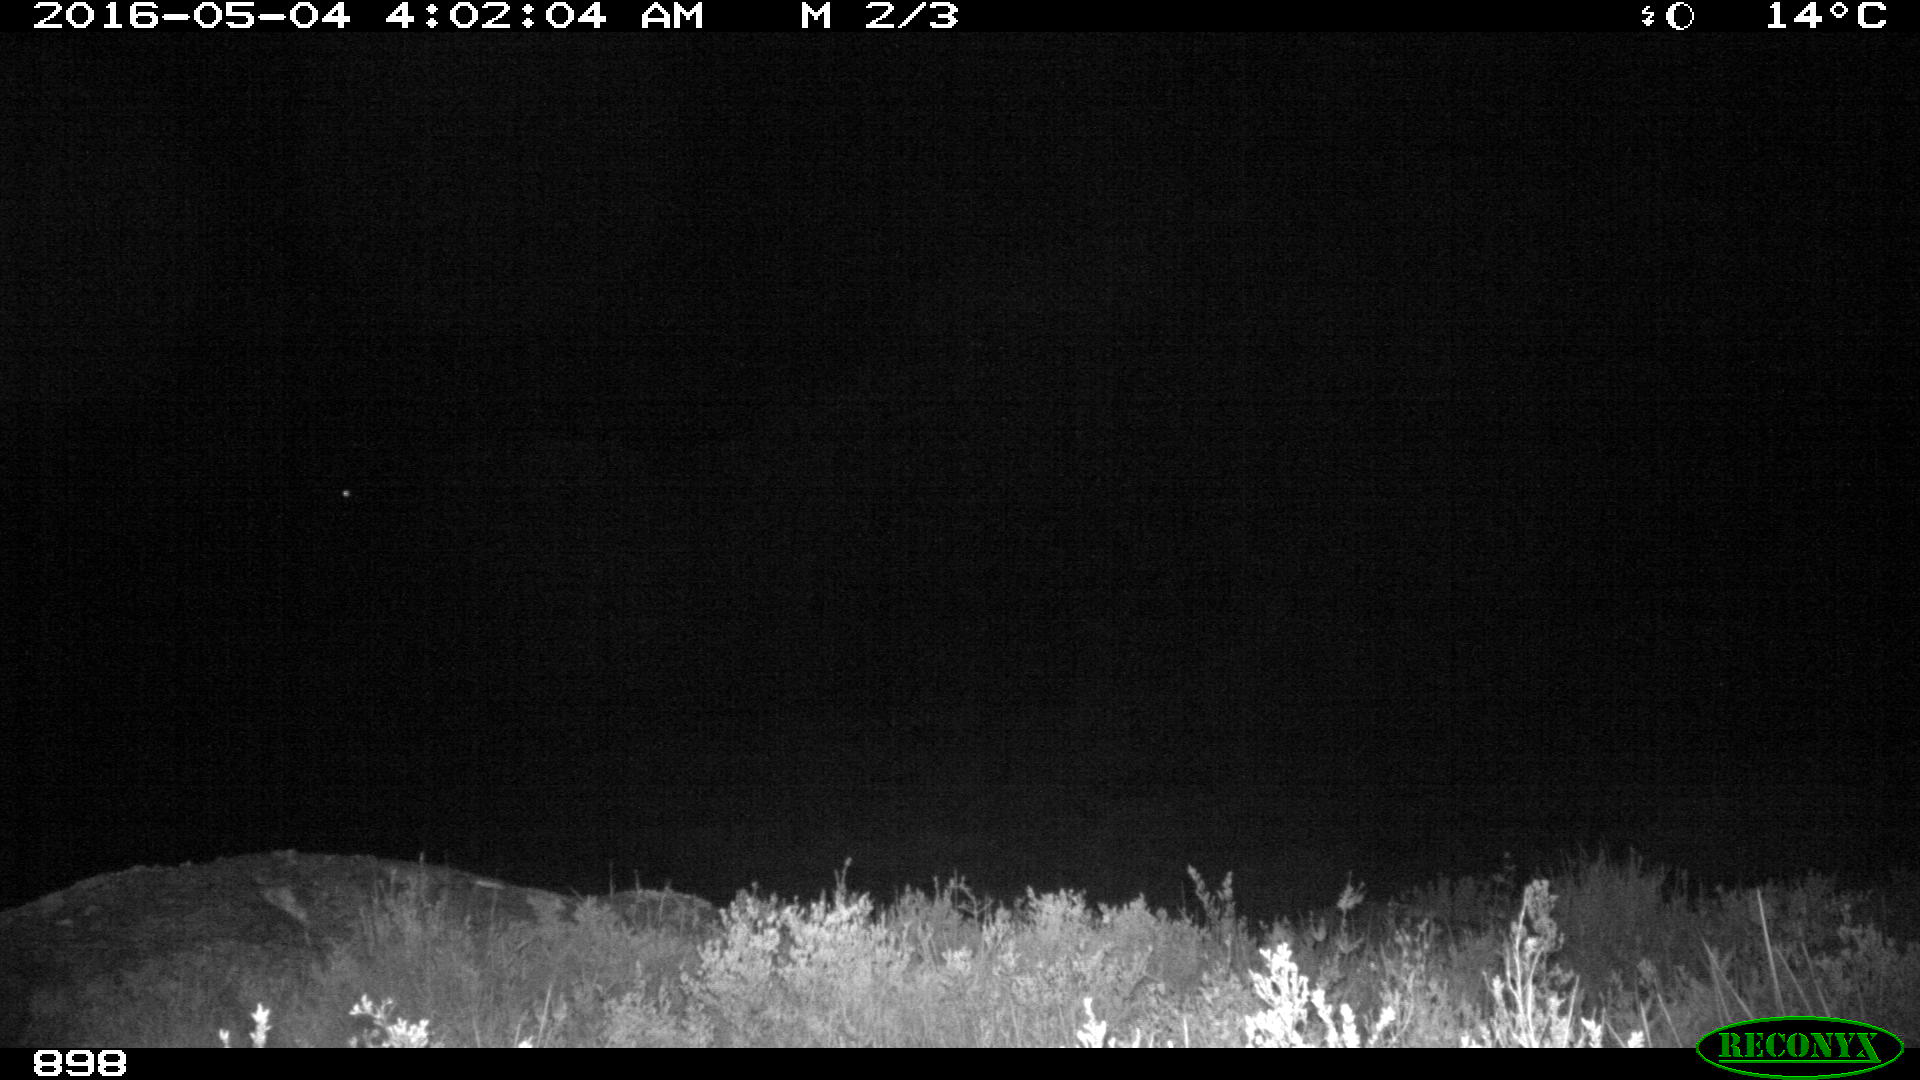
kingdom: Animalia
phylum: Chordata
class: Mammalia
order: Perissodactyla
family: Equidae
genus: Equus
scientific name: Equus caballus
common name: Horse
